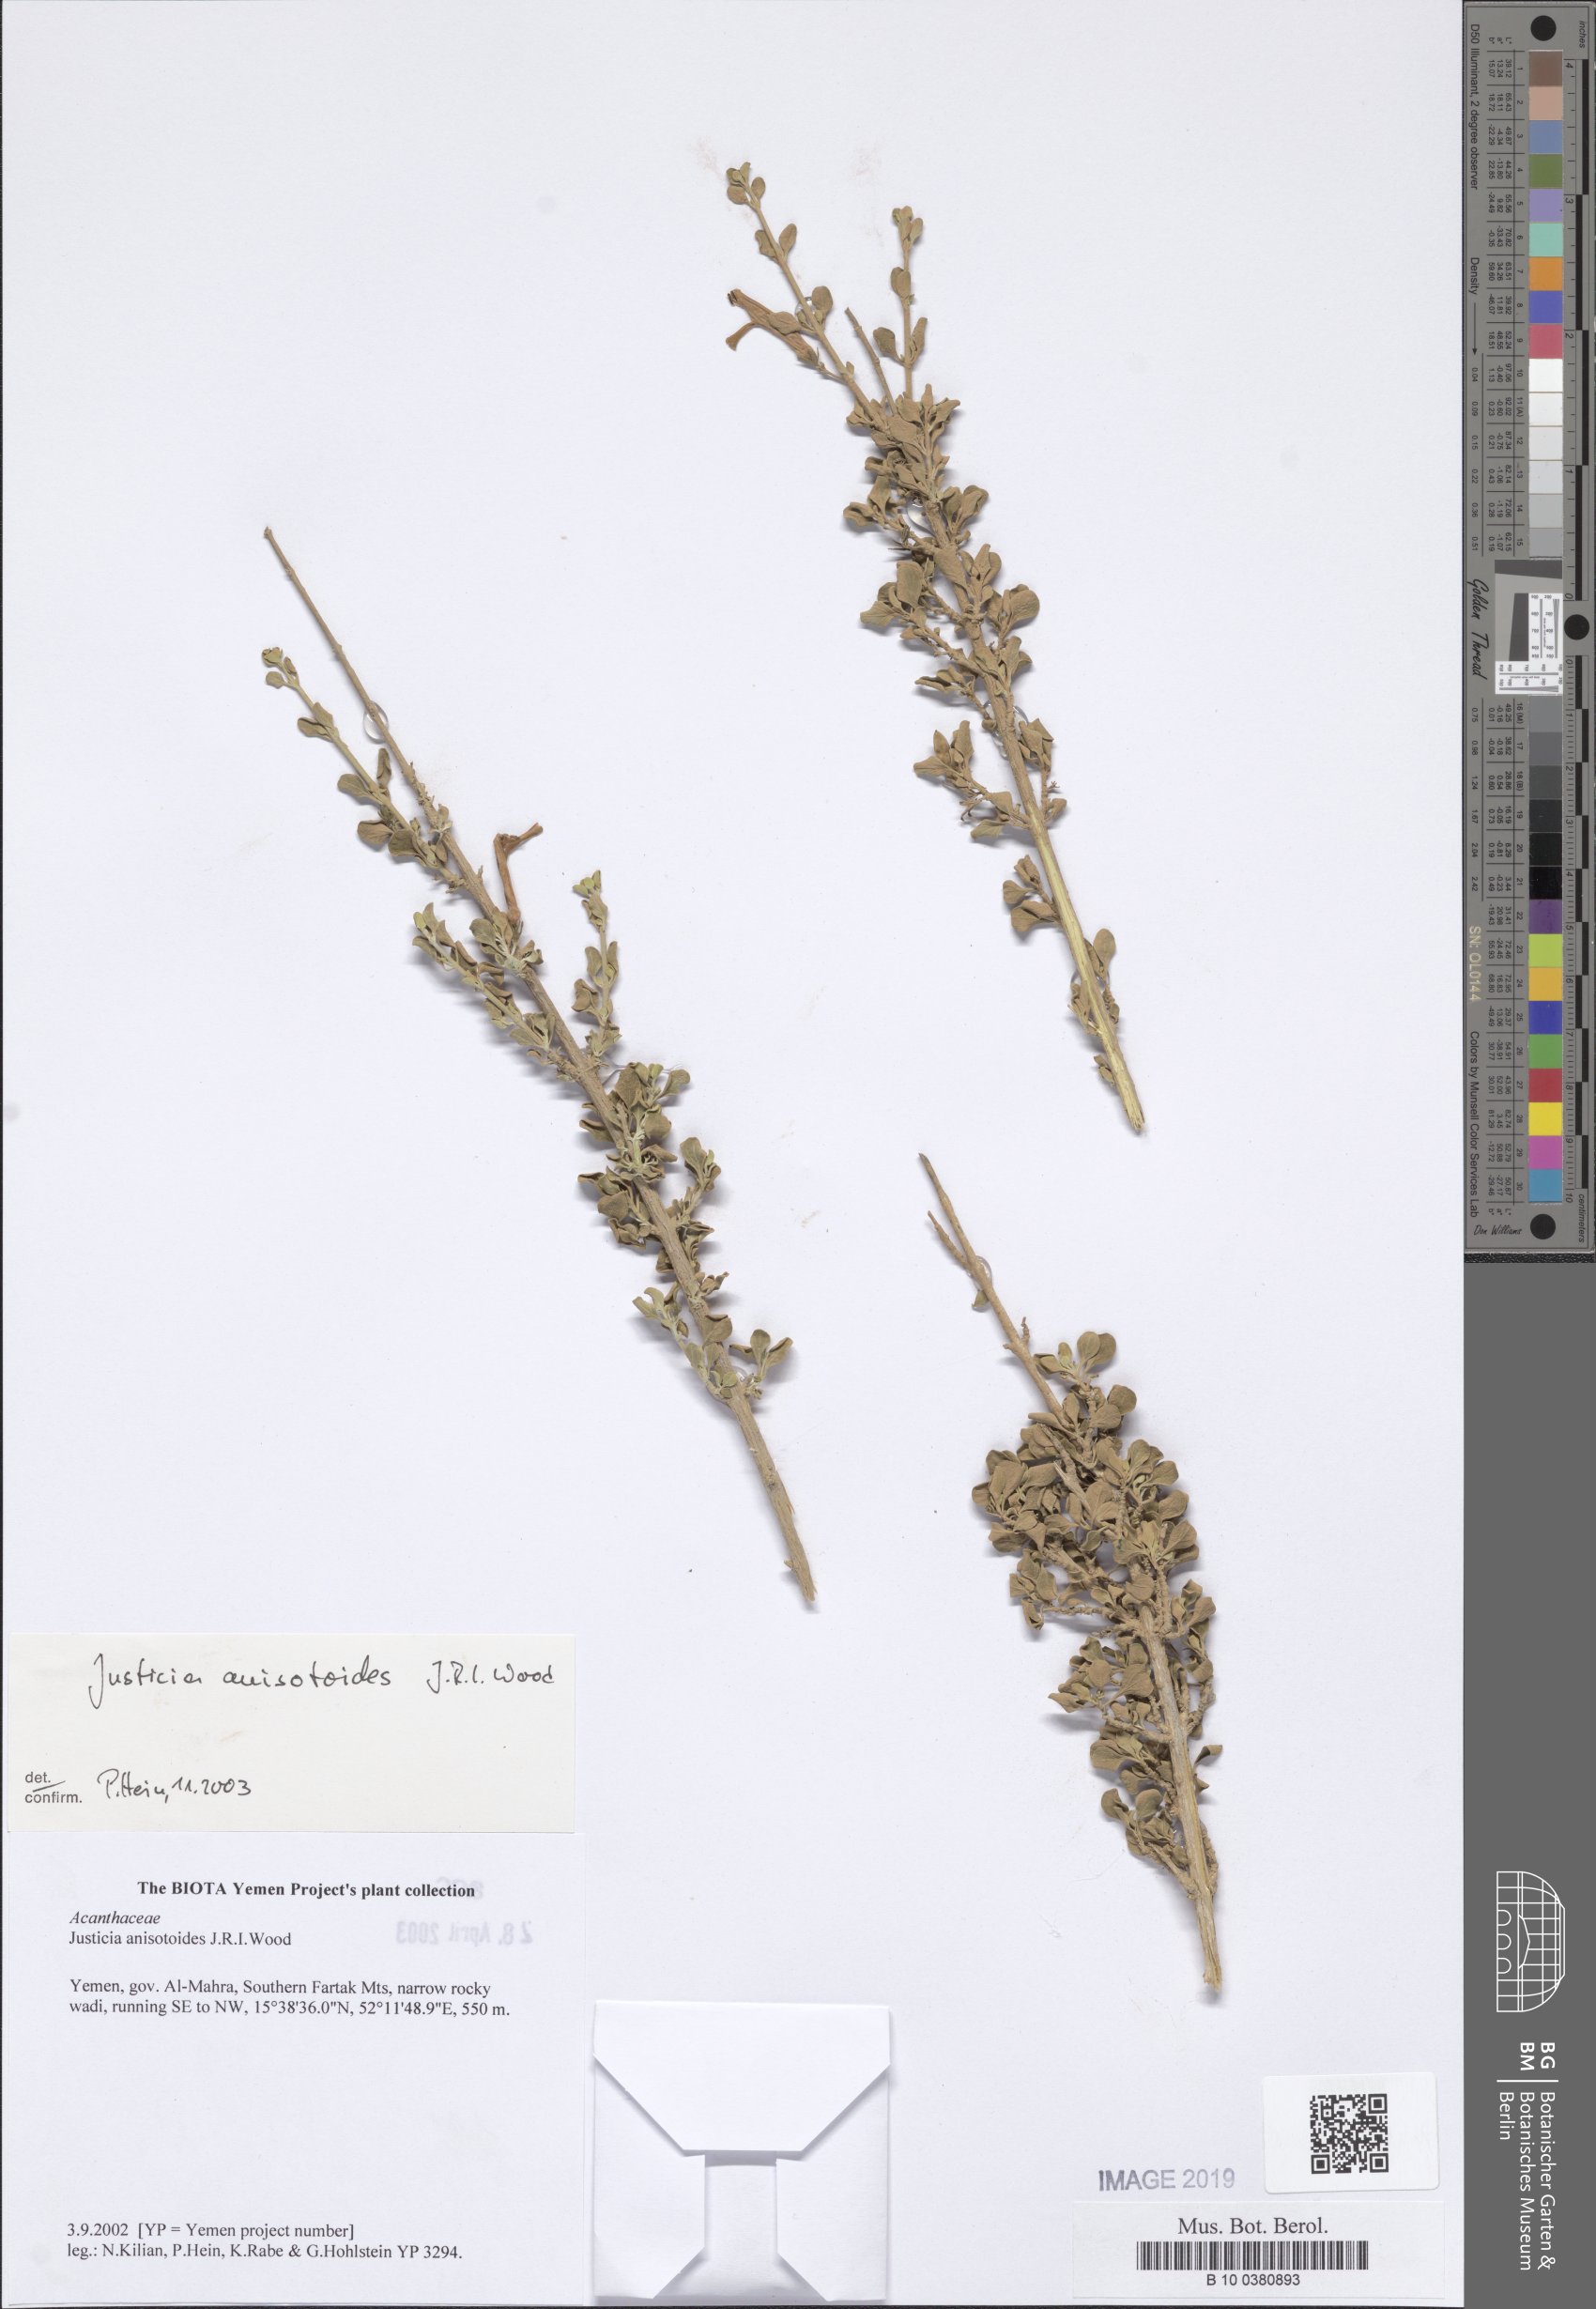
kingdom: Plantae
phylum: Tracheophyta
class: Magnoliopsida
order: Lamiales
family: Acanthaceae
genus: Justicia
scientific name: Justicia anisotoides
